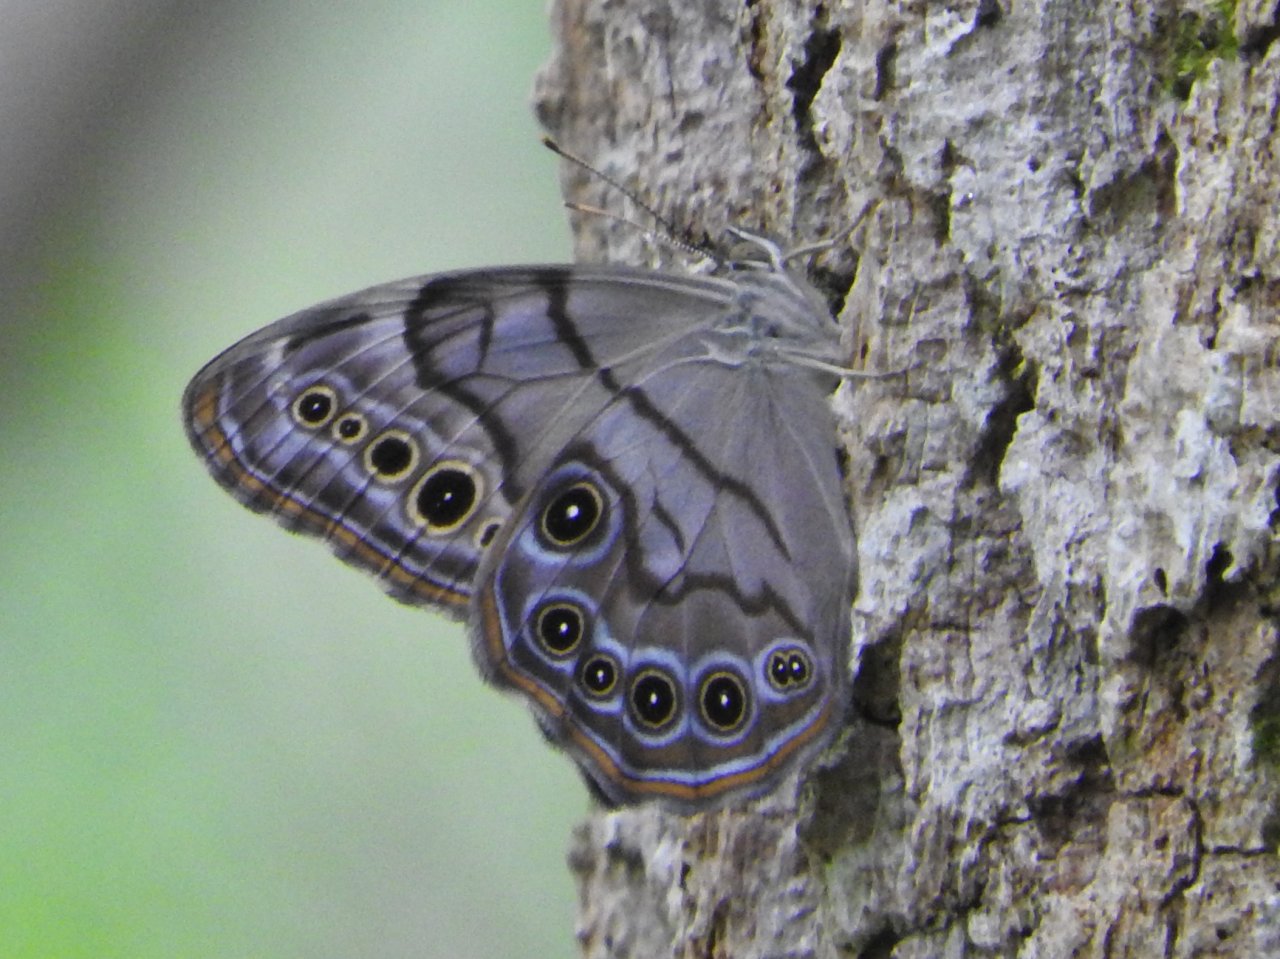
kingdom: Animalia
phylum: Arthropoda
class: Insecta
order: Lepidoptera
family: Nymphalidae
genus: Lethe
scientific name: Lethe anthedon
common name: Northern Pearly-Eye
